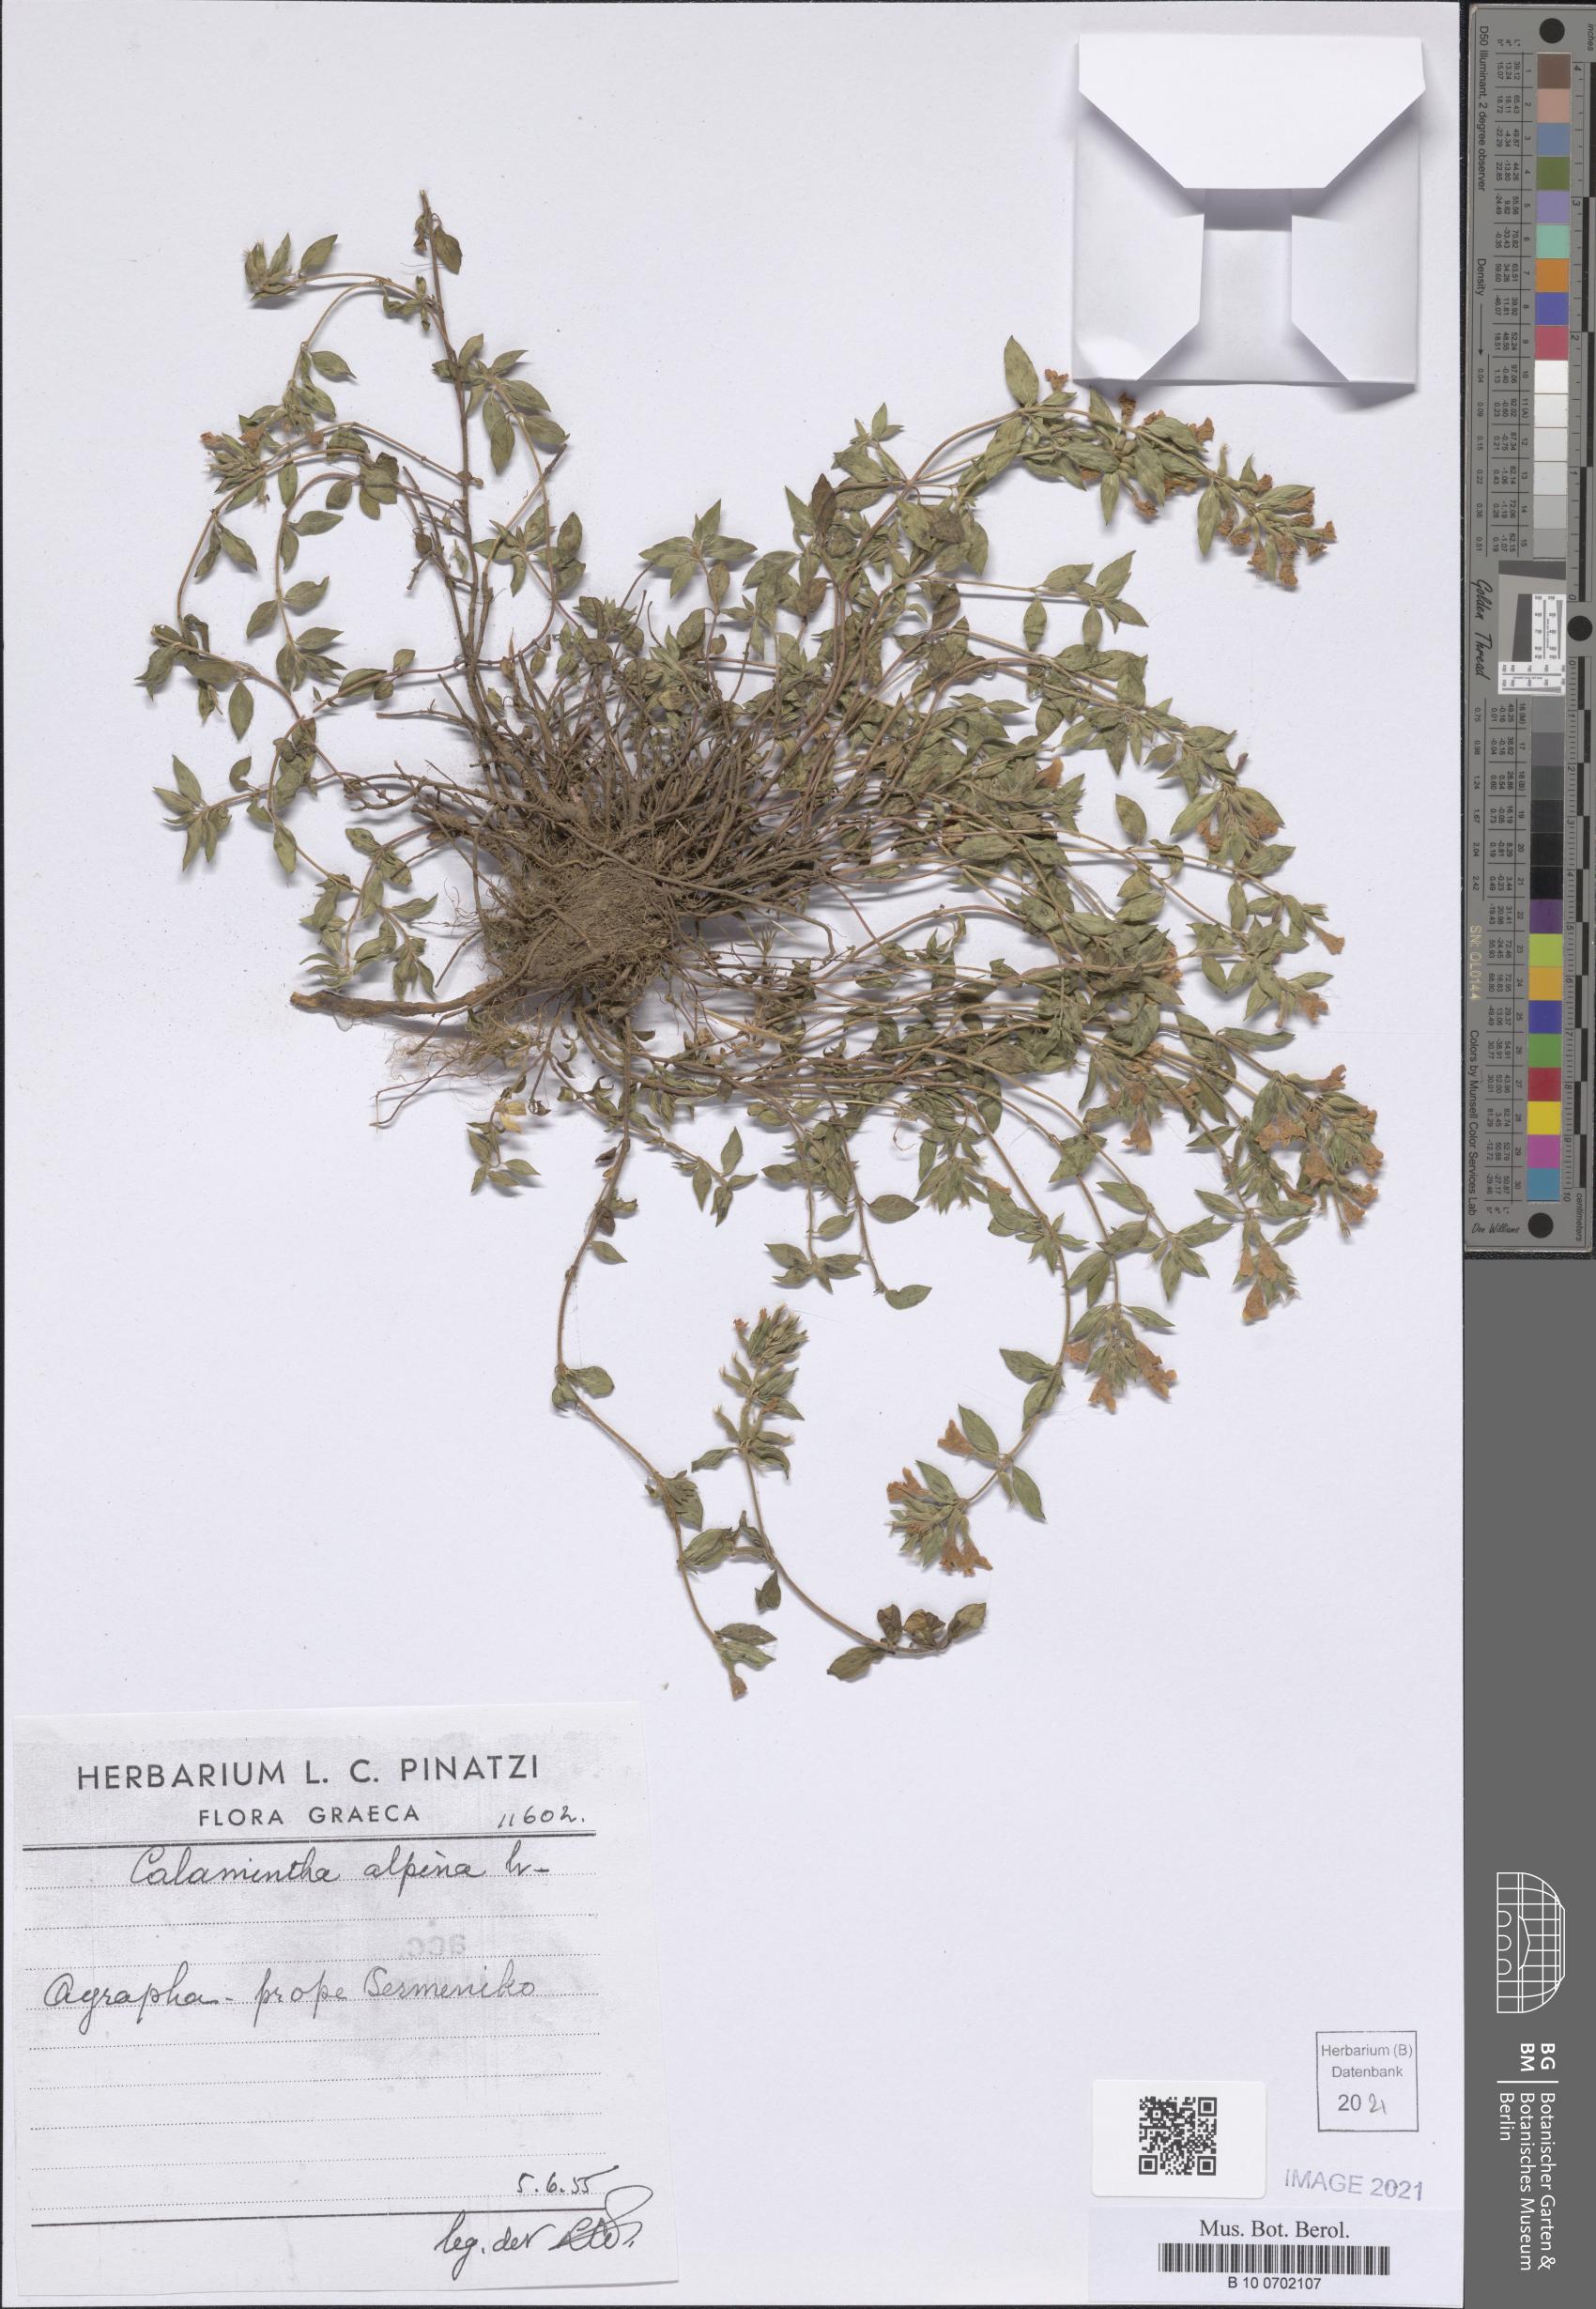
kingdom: Plantae
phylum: Tracheophyta
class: Magnoliopsida
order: Lamiales
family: Lamiaceae
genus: Clinopodium
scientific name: Clinopodium alpinum
